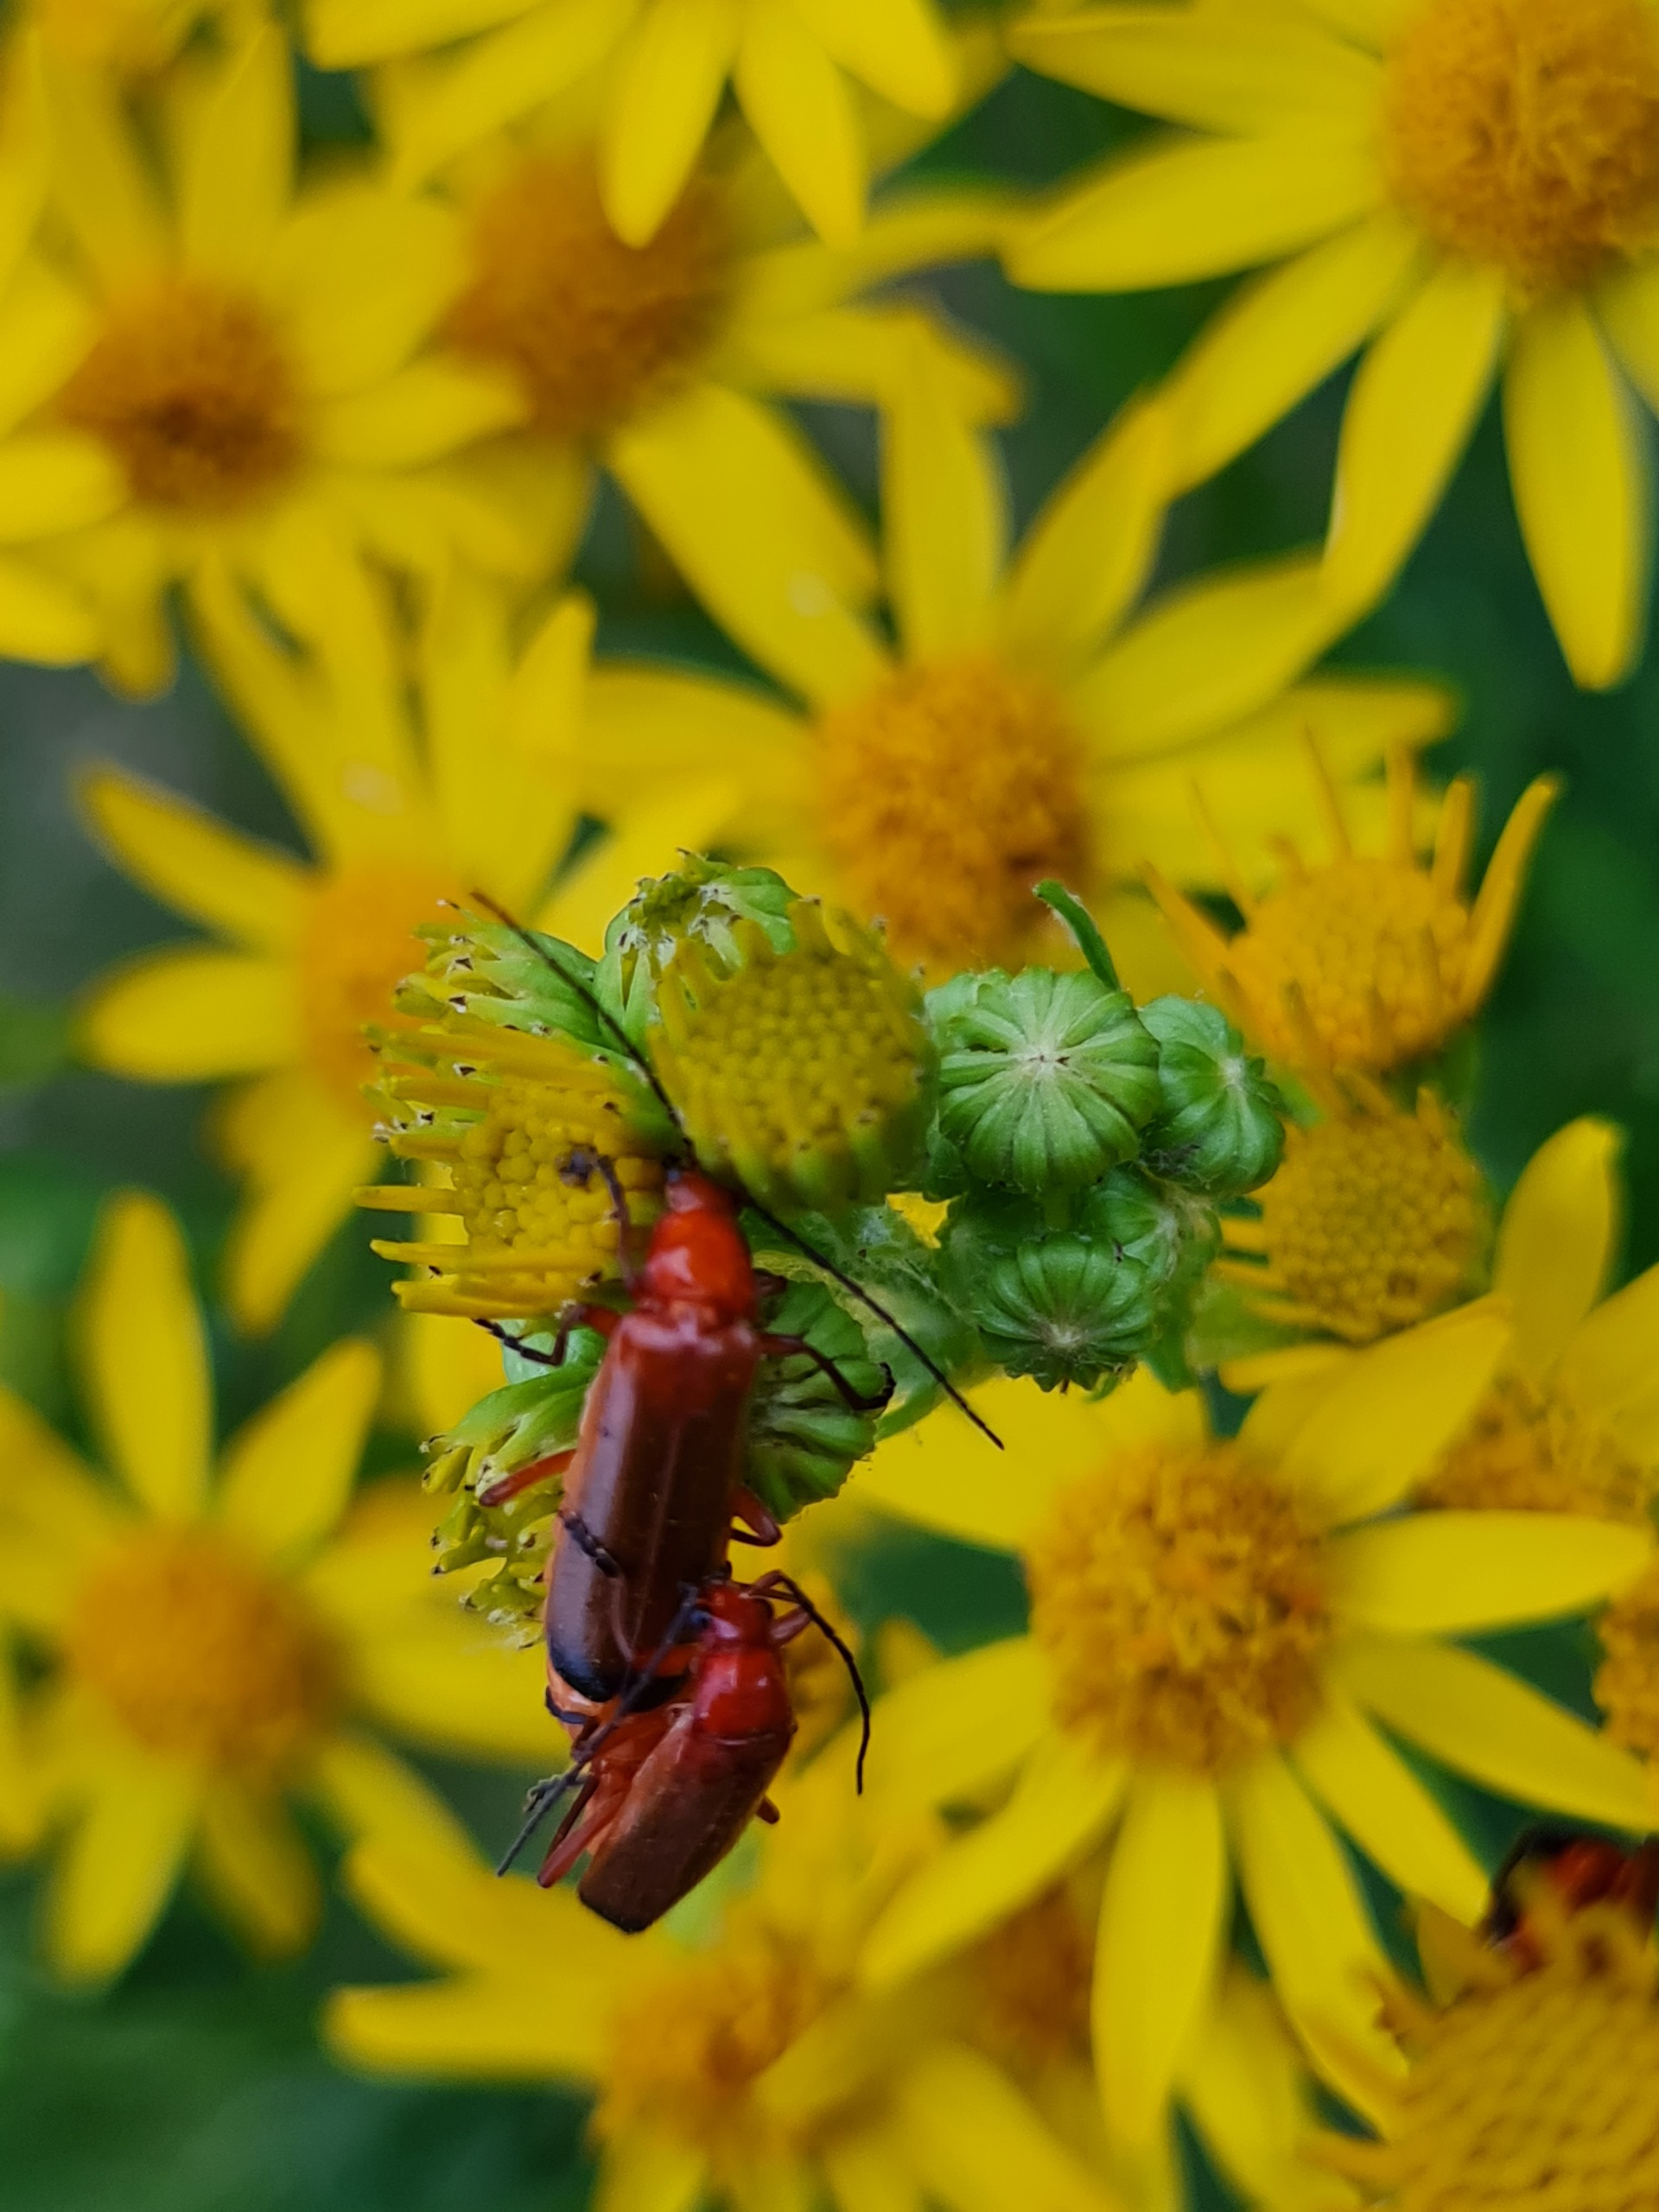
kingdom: Animalia
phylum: Arthropoda
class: Insecta
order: Coleoptera
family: Cantharidae
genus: Rhagonycha
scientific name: Rhagonycha fulva
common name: Præstebille
